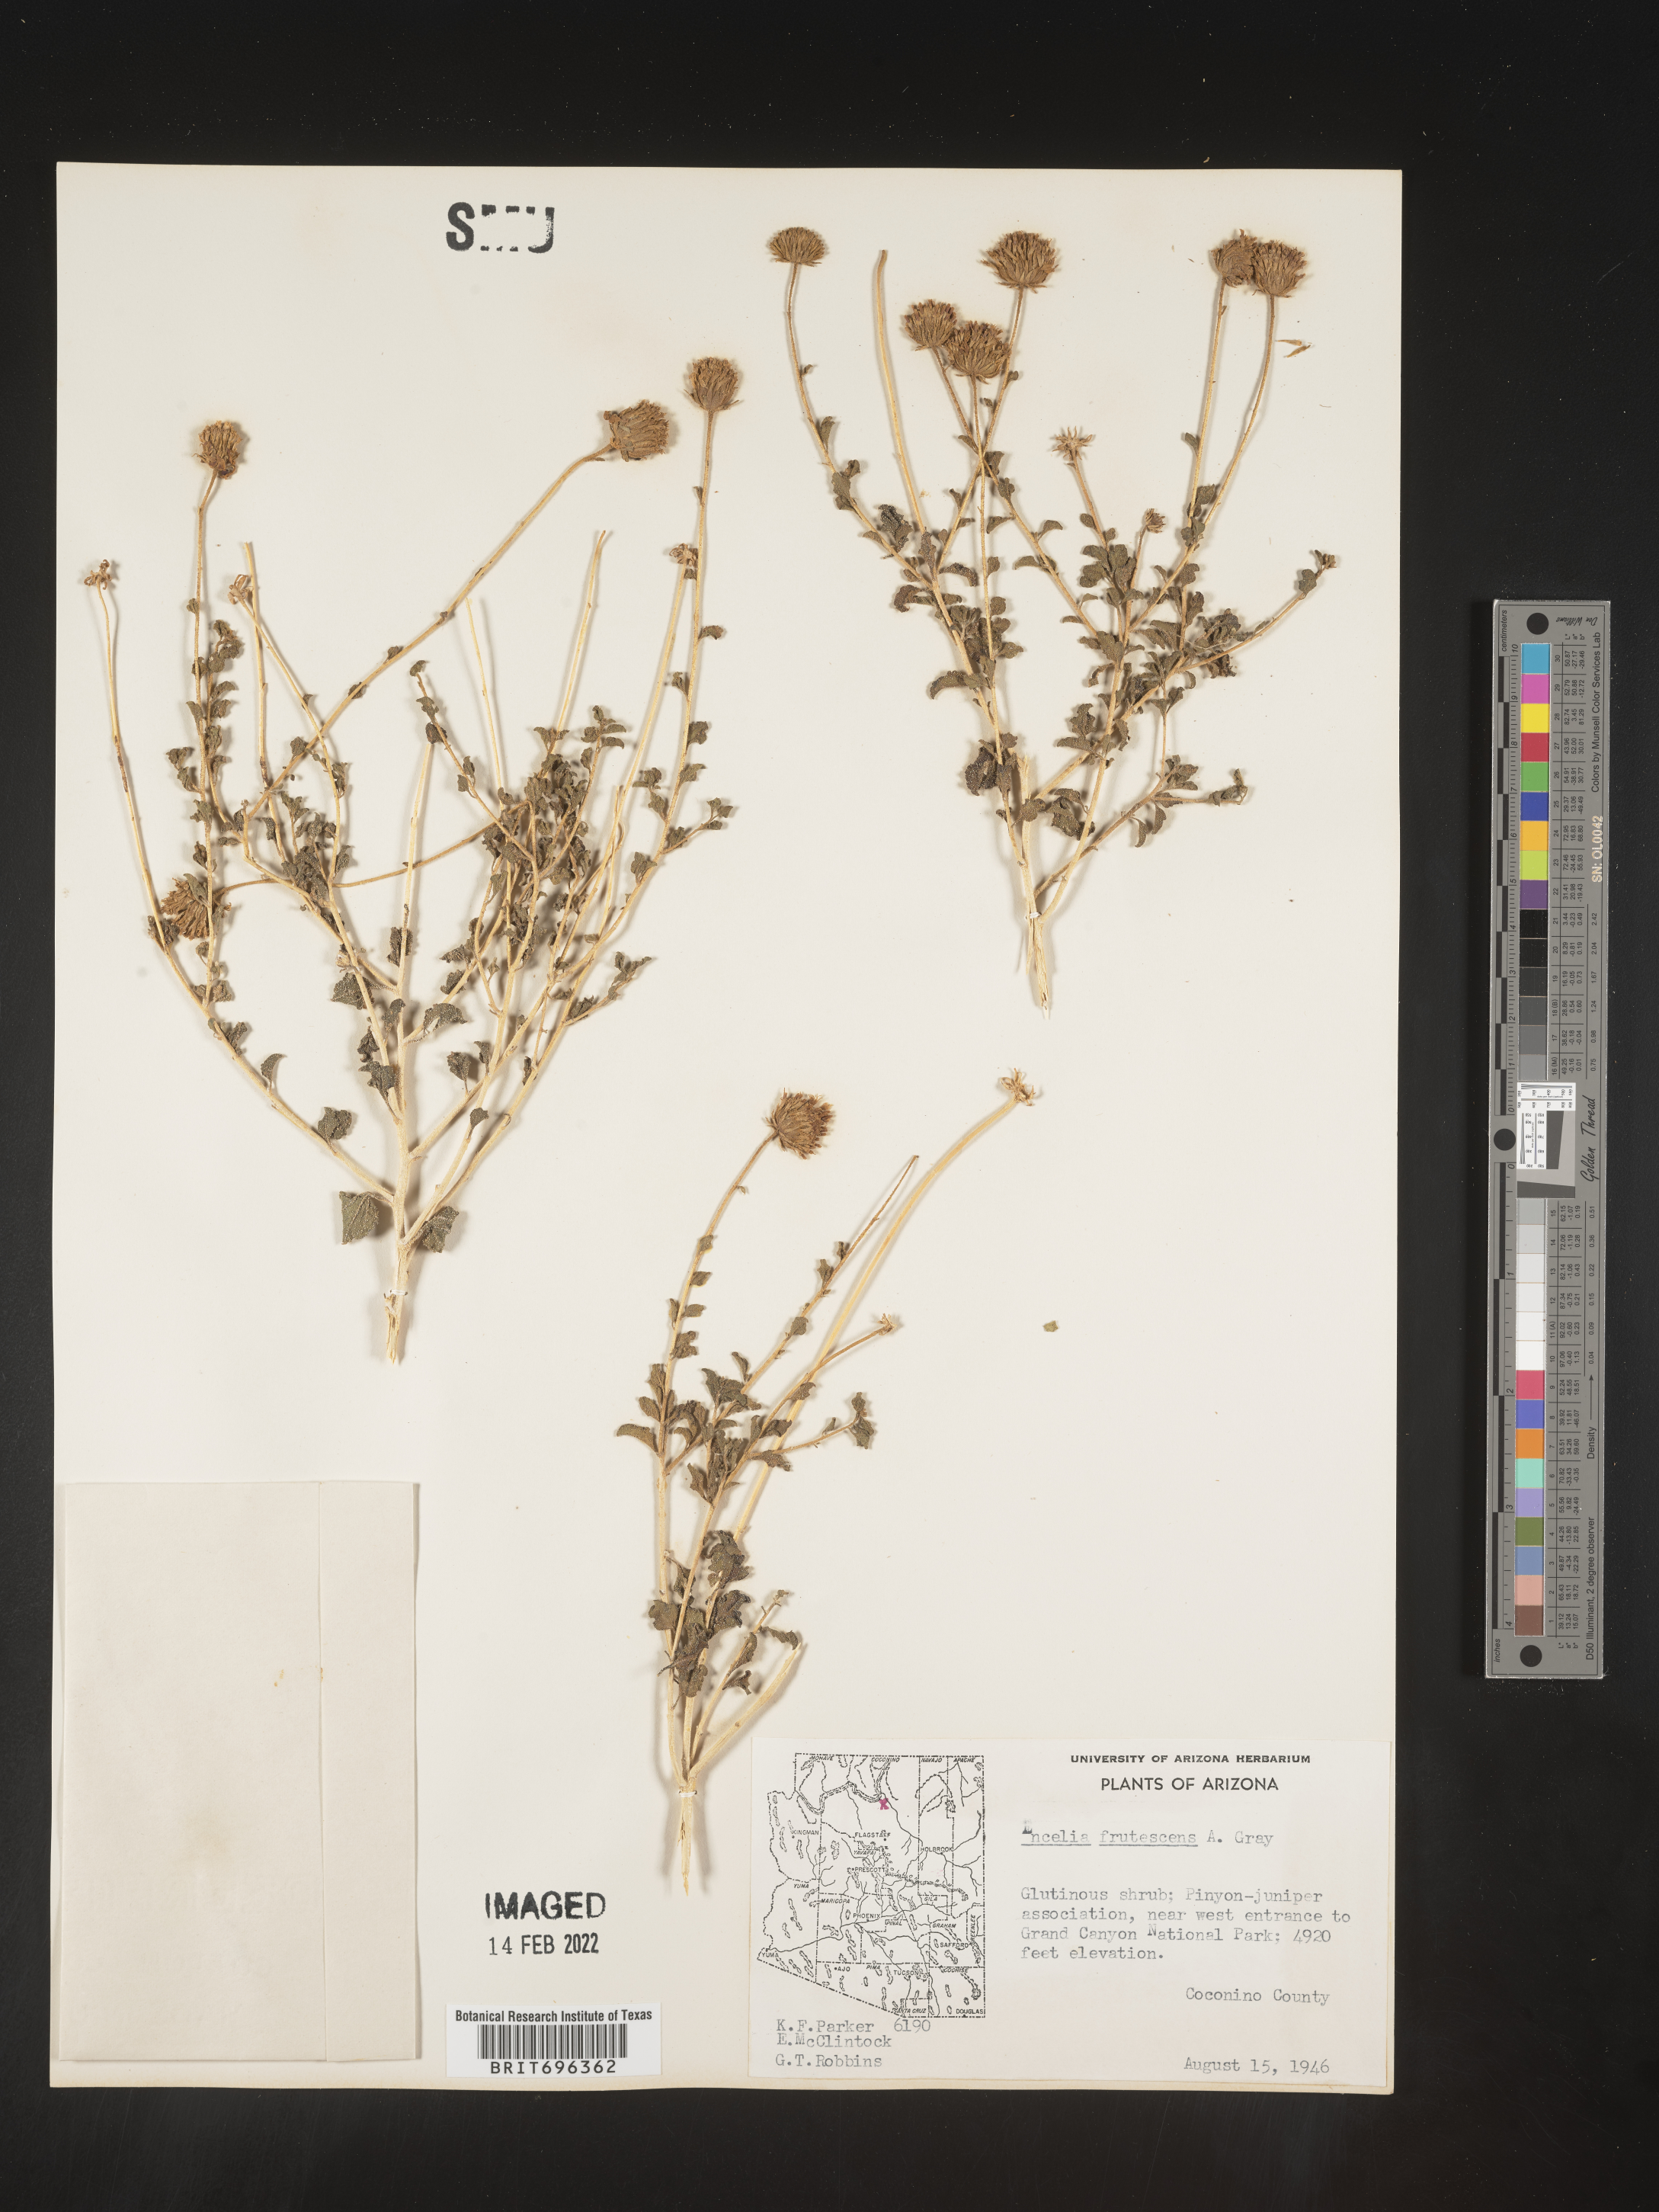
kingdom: Plantae
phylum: Tracheophyta
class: Magnoliopsida
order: Asterales
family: Asteraceae
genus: Encelia
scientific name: Encelia frutescens
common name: Bush encelia
